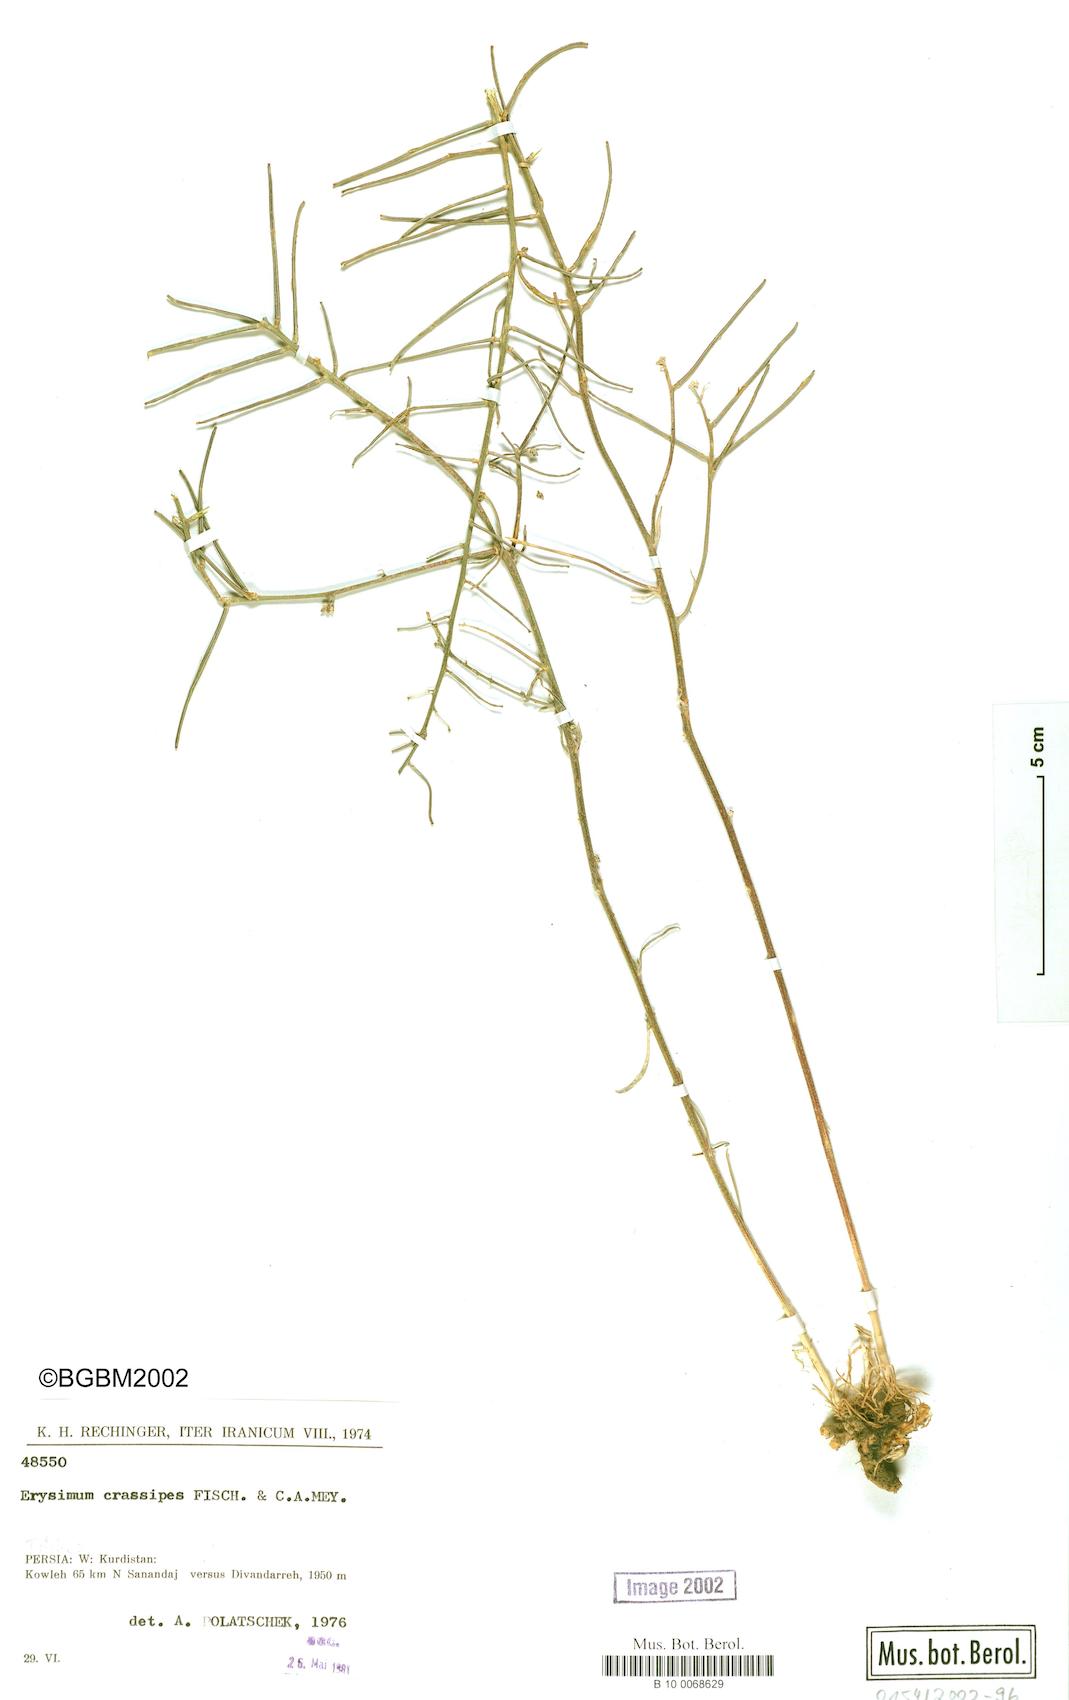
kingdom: Plantae
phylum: Tracheophyta
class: Magnoliopsida
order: Brassicales
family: Brassicaceae
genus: Erysimum
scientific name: Erysimum crassipes
